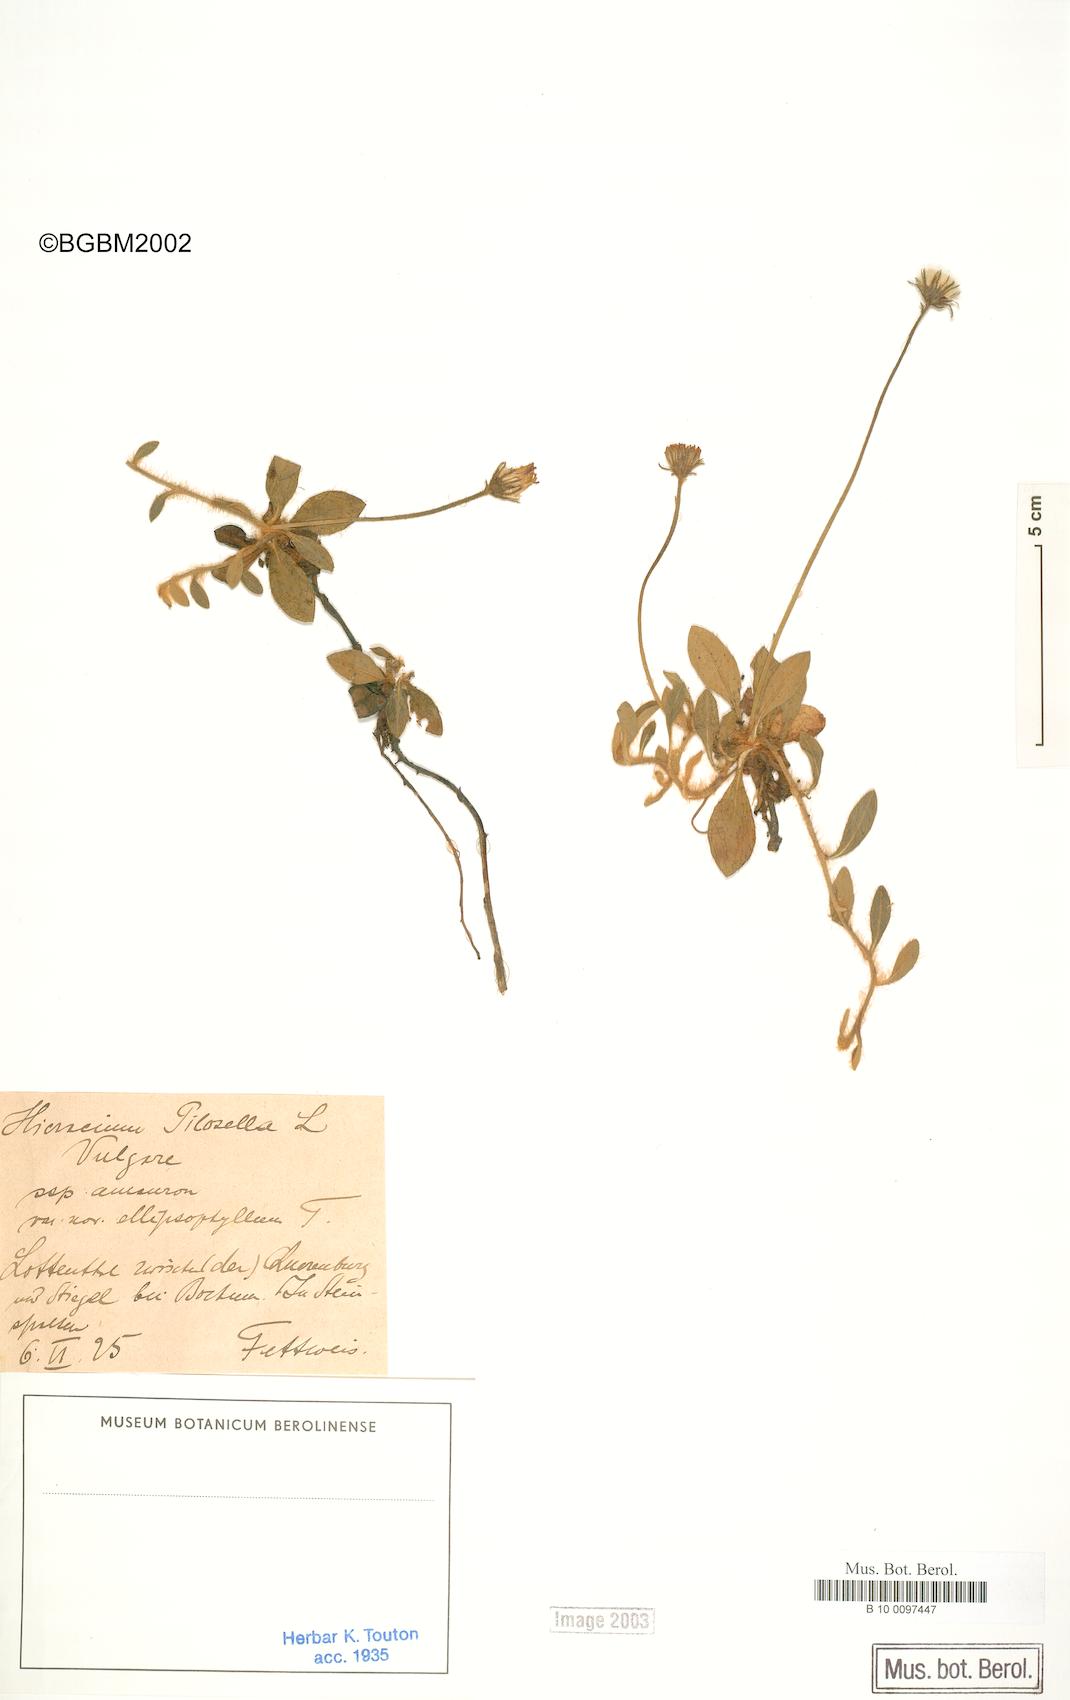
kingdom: Plantae
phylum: Tracheophyta
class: Magnoliopsida
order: Asterales
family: Asteraceae
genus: Pilosella
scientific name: Pilosella officinarum
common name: Mouse-ear hawkweed
